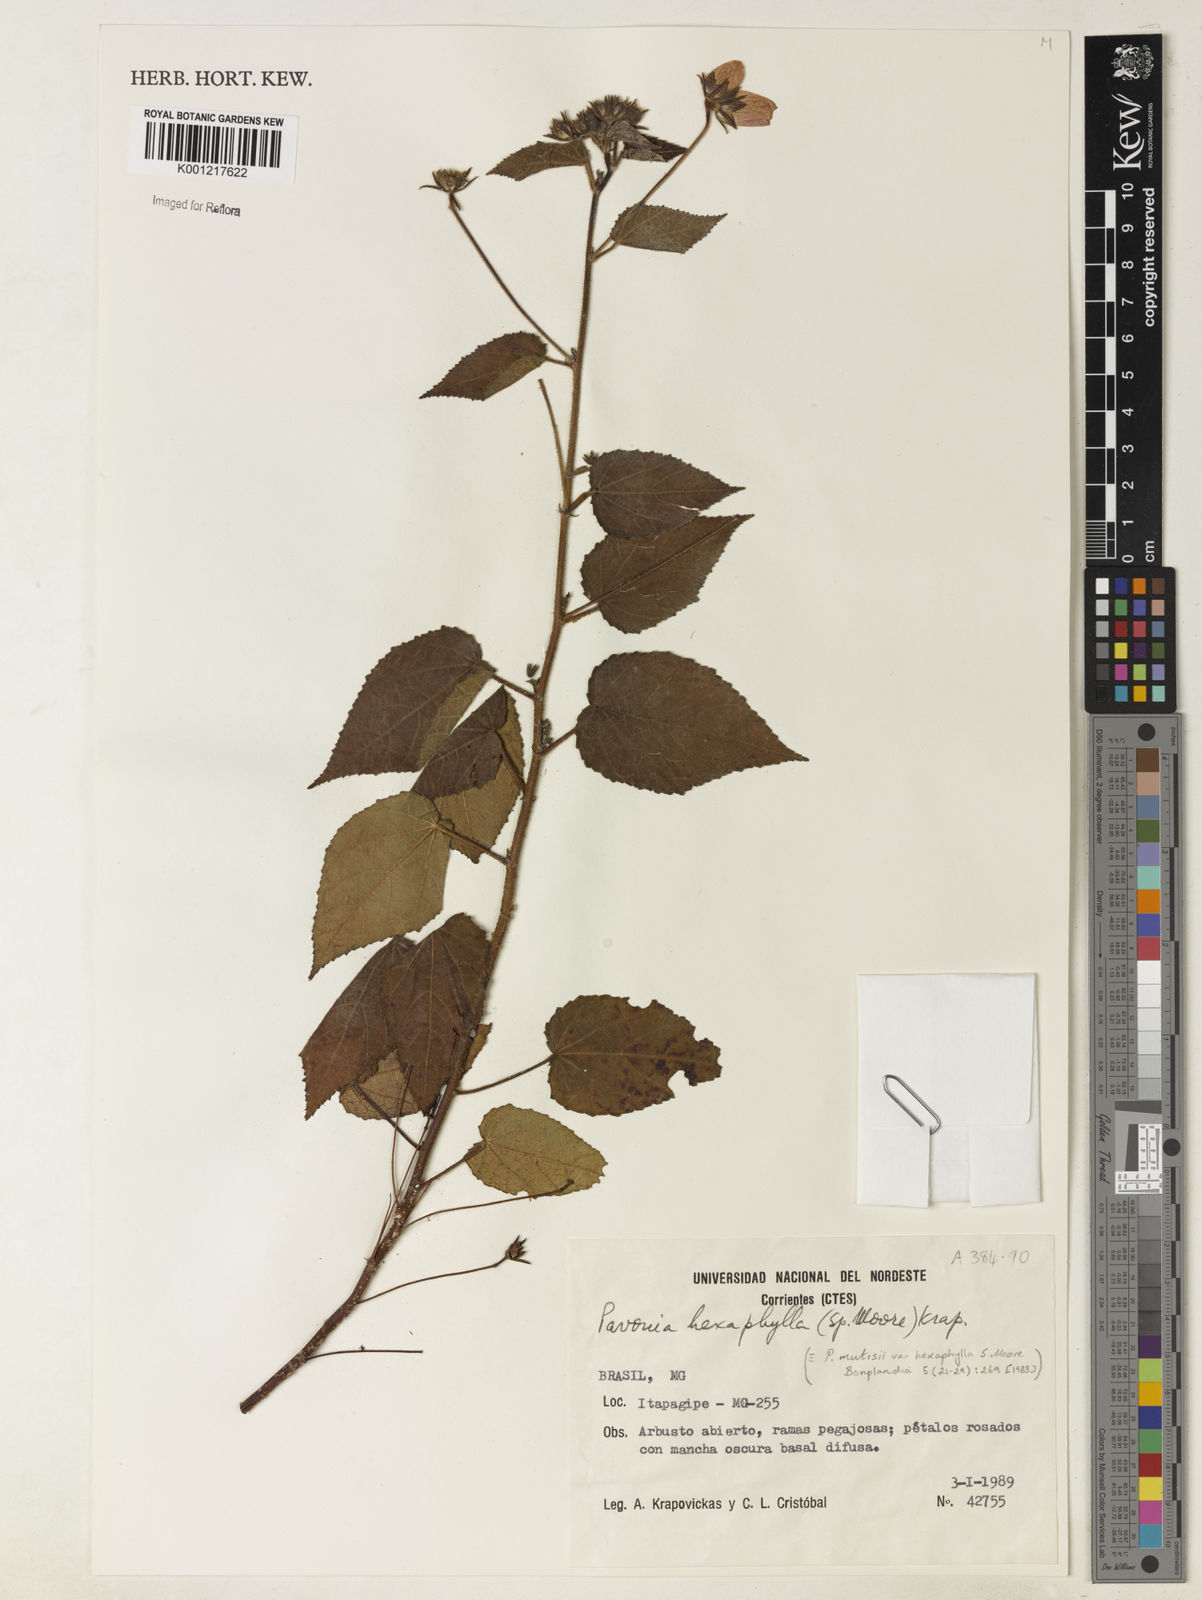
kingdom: Plantae
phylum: Tracheophyta
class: Magnoliopsida
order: Malvales
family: Malvaceae
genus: Pavonia
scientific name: Pavonia geminiflora
